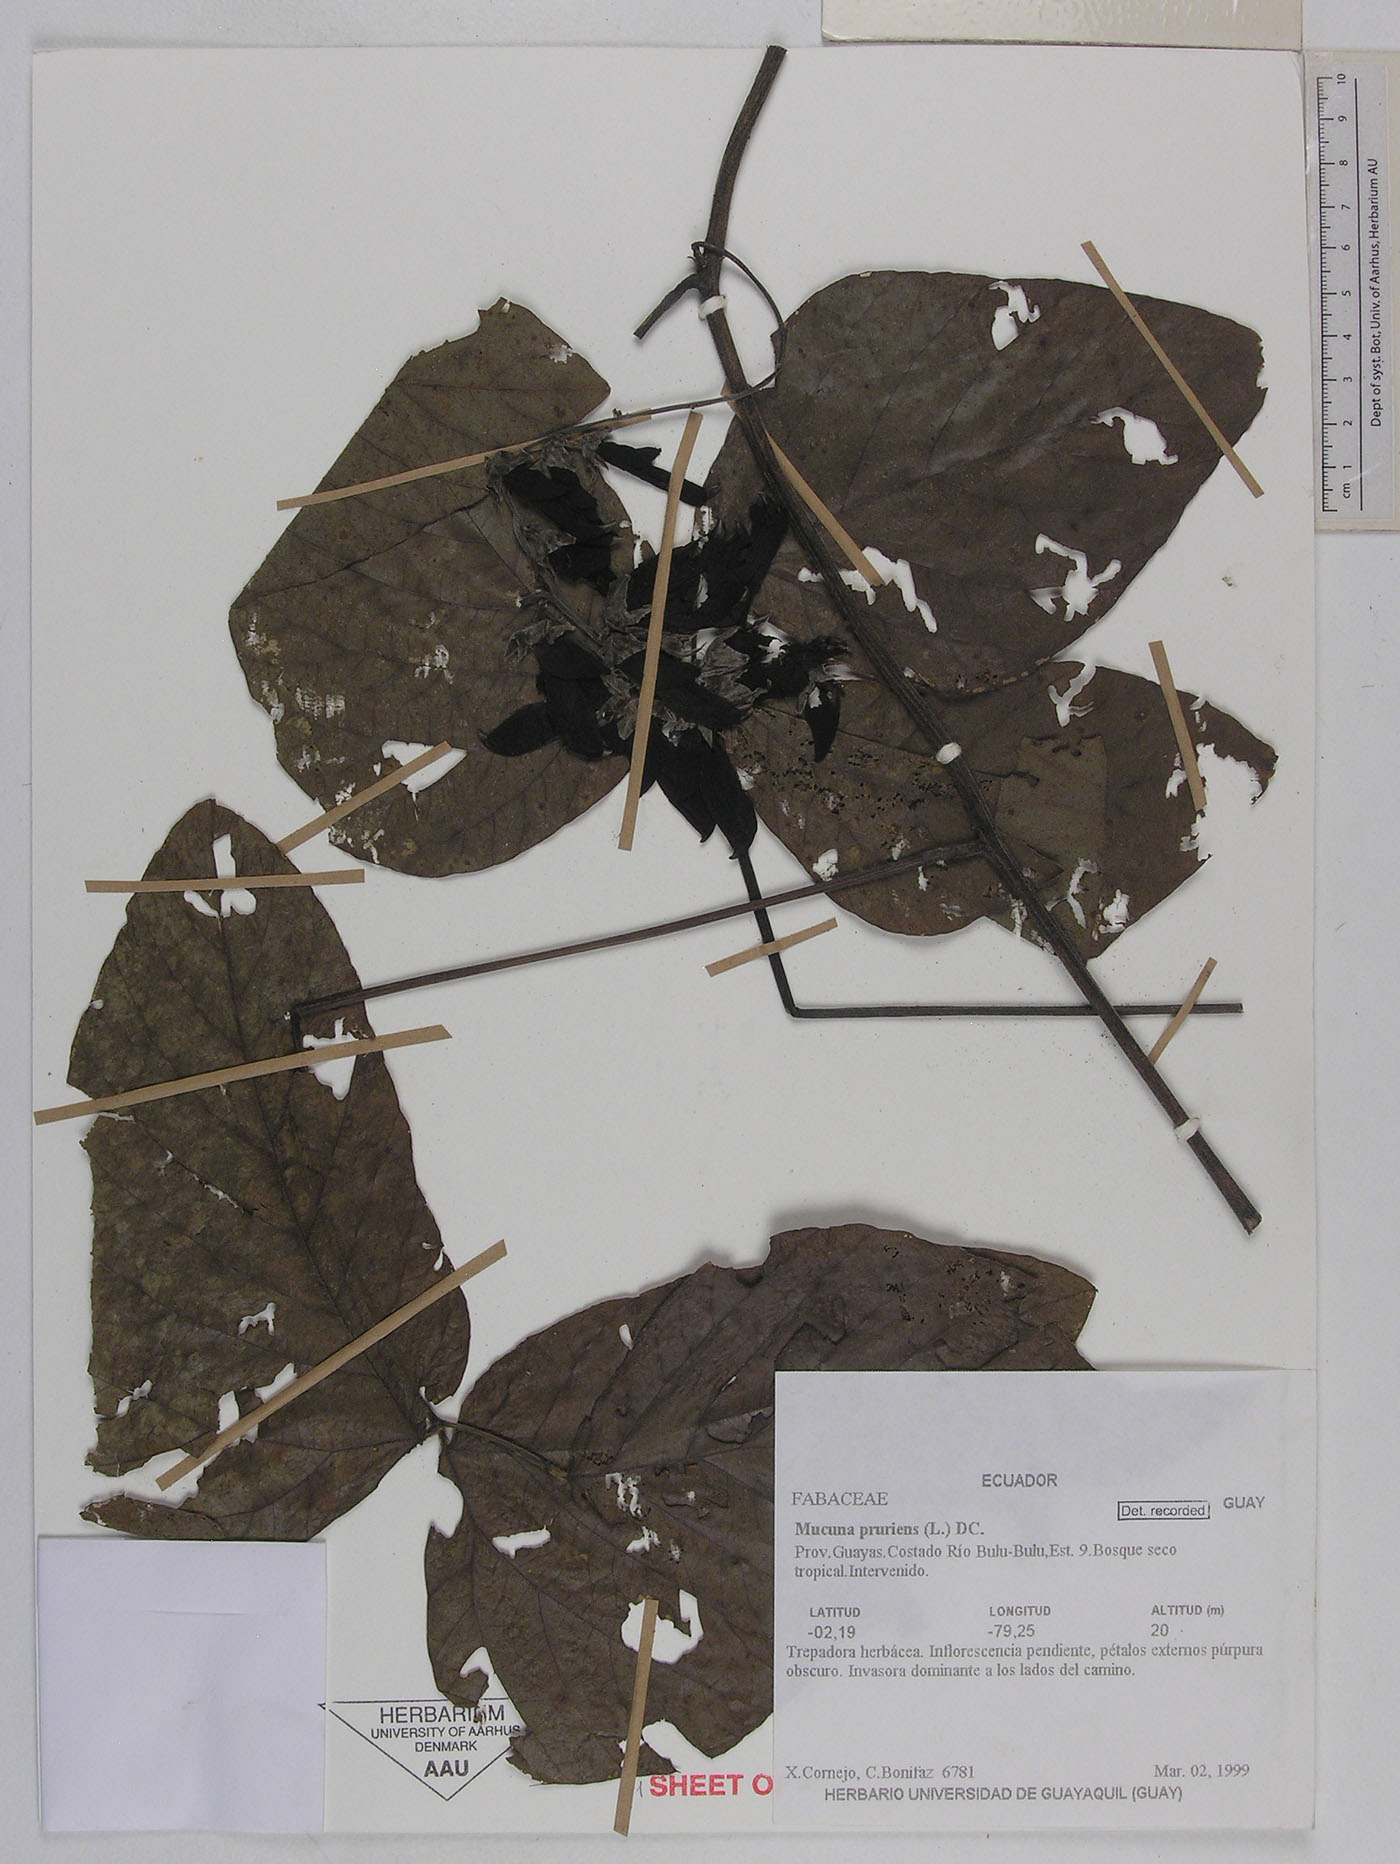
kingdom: Plantae
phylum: Tracheophyta
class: Magnoliopsida
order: Fabales
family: Fabaceae
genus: Mucuna
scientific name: Mucuna pruriens
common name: Cow-itch
